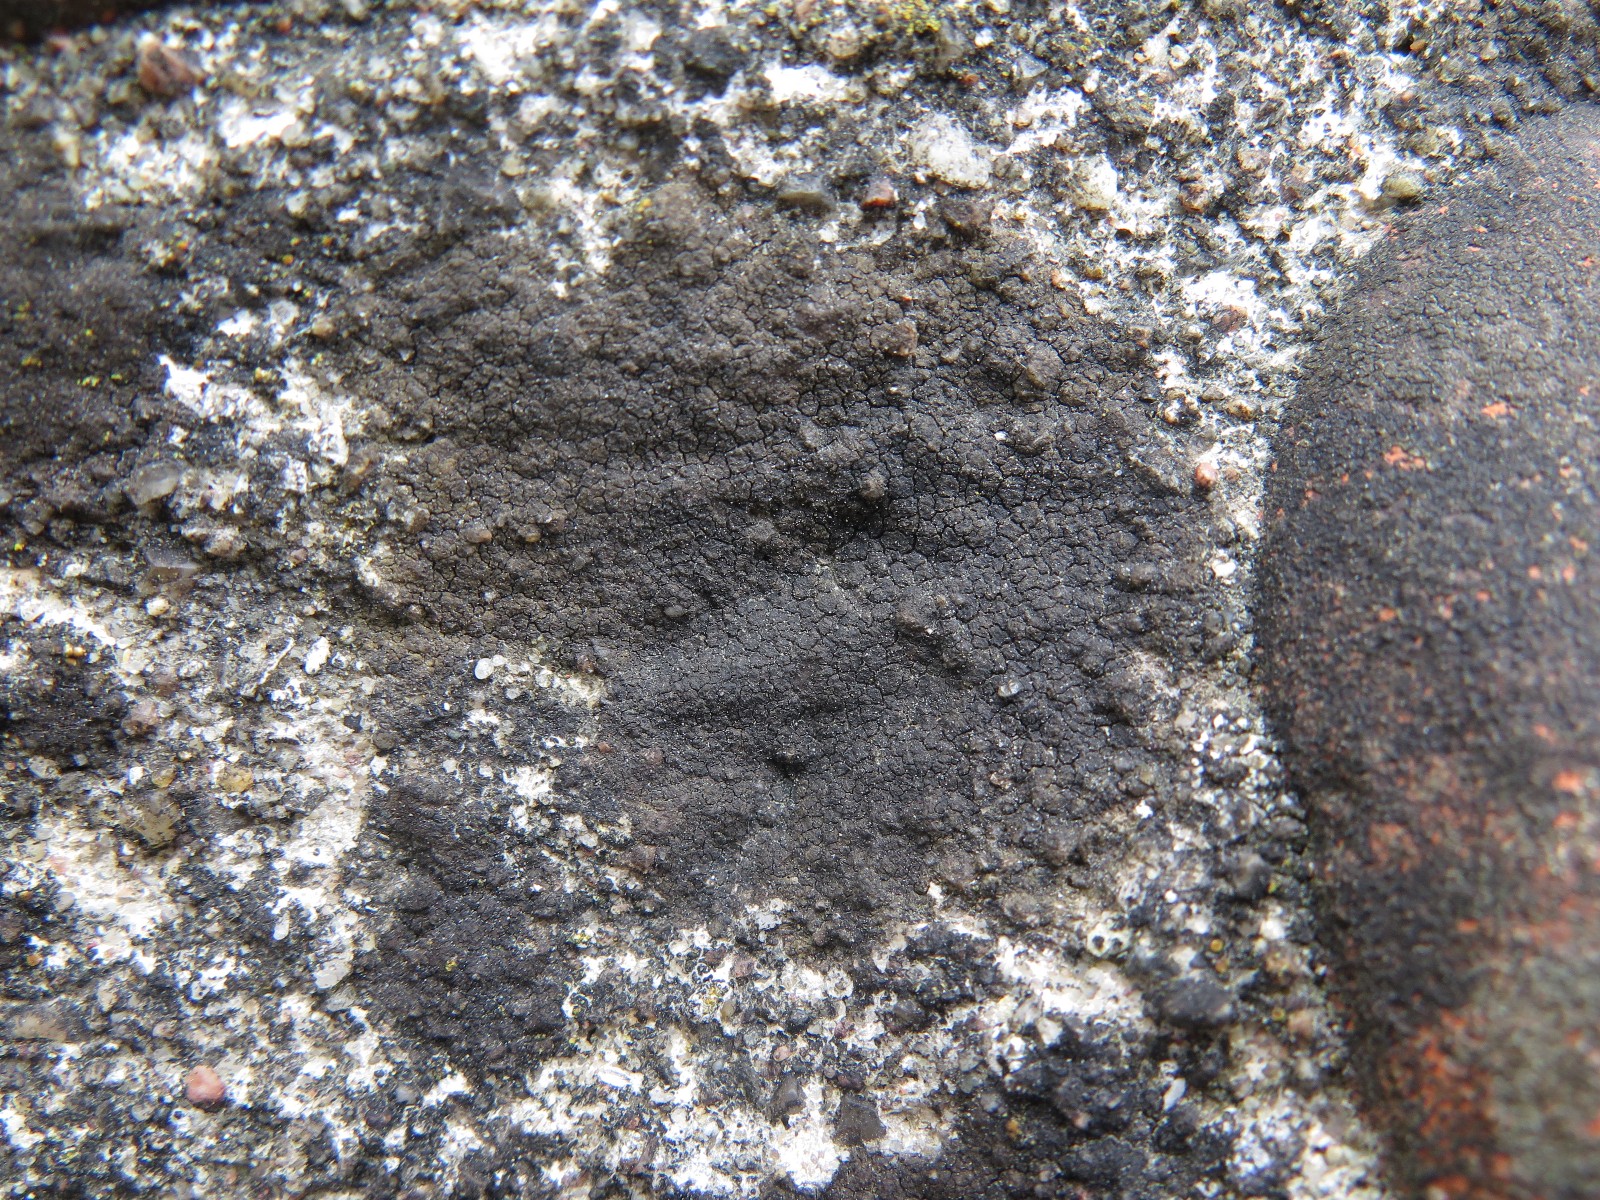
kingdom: Fungi
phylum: Ascomycota
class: Eurotiomycetes
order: Verrucariales
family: Verrucariaceae
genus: Verrucaria
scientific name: Verrucaria nigrescens
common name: sortbrun vortelav
